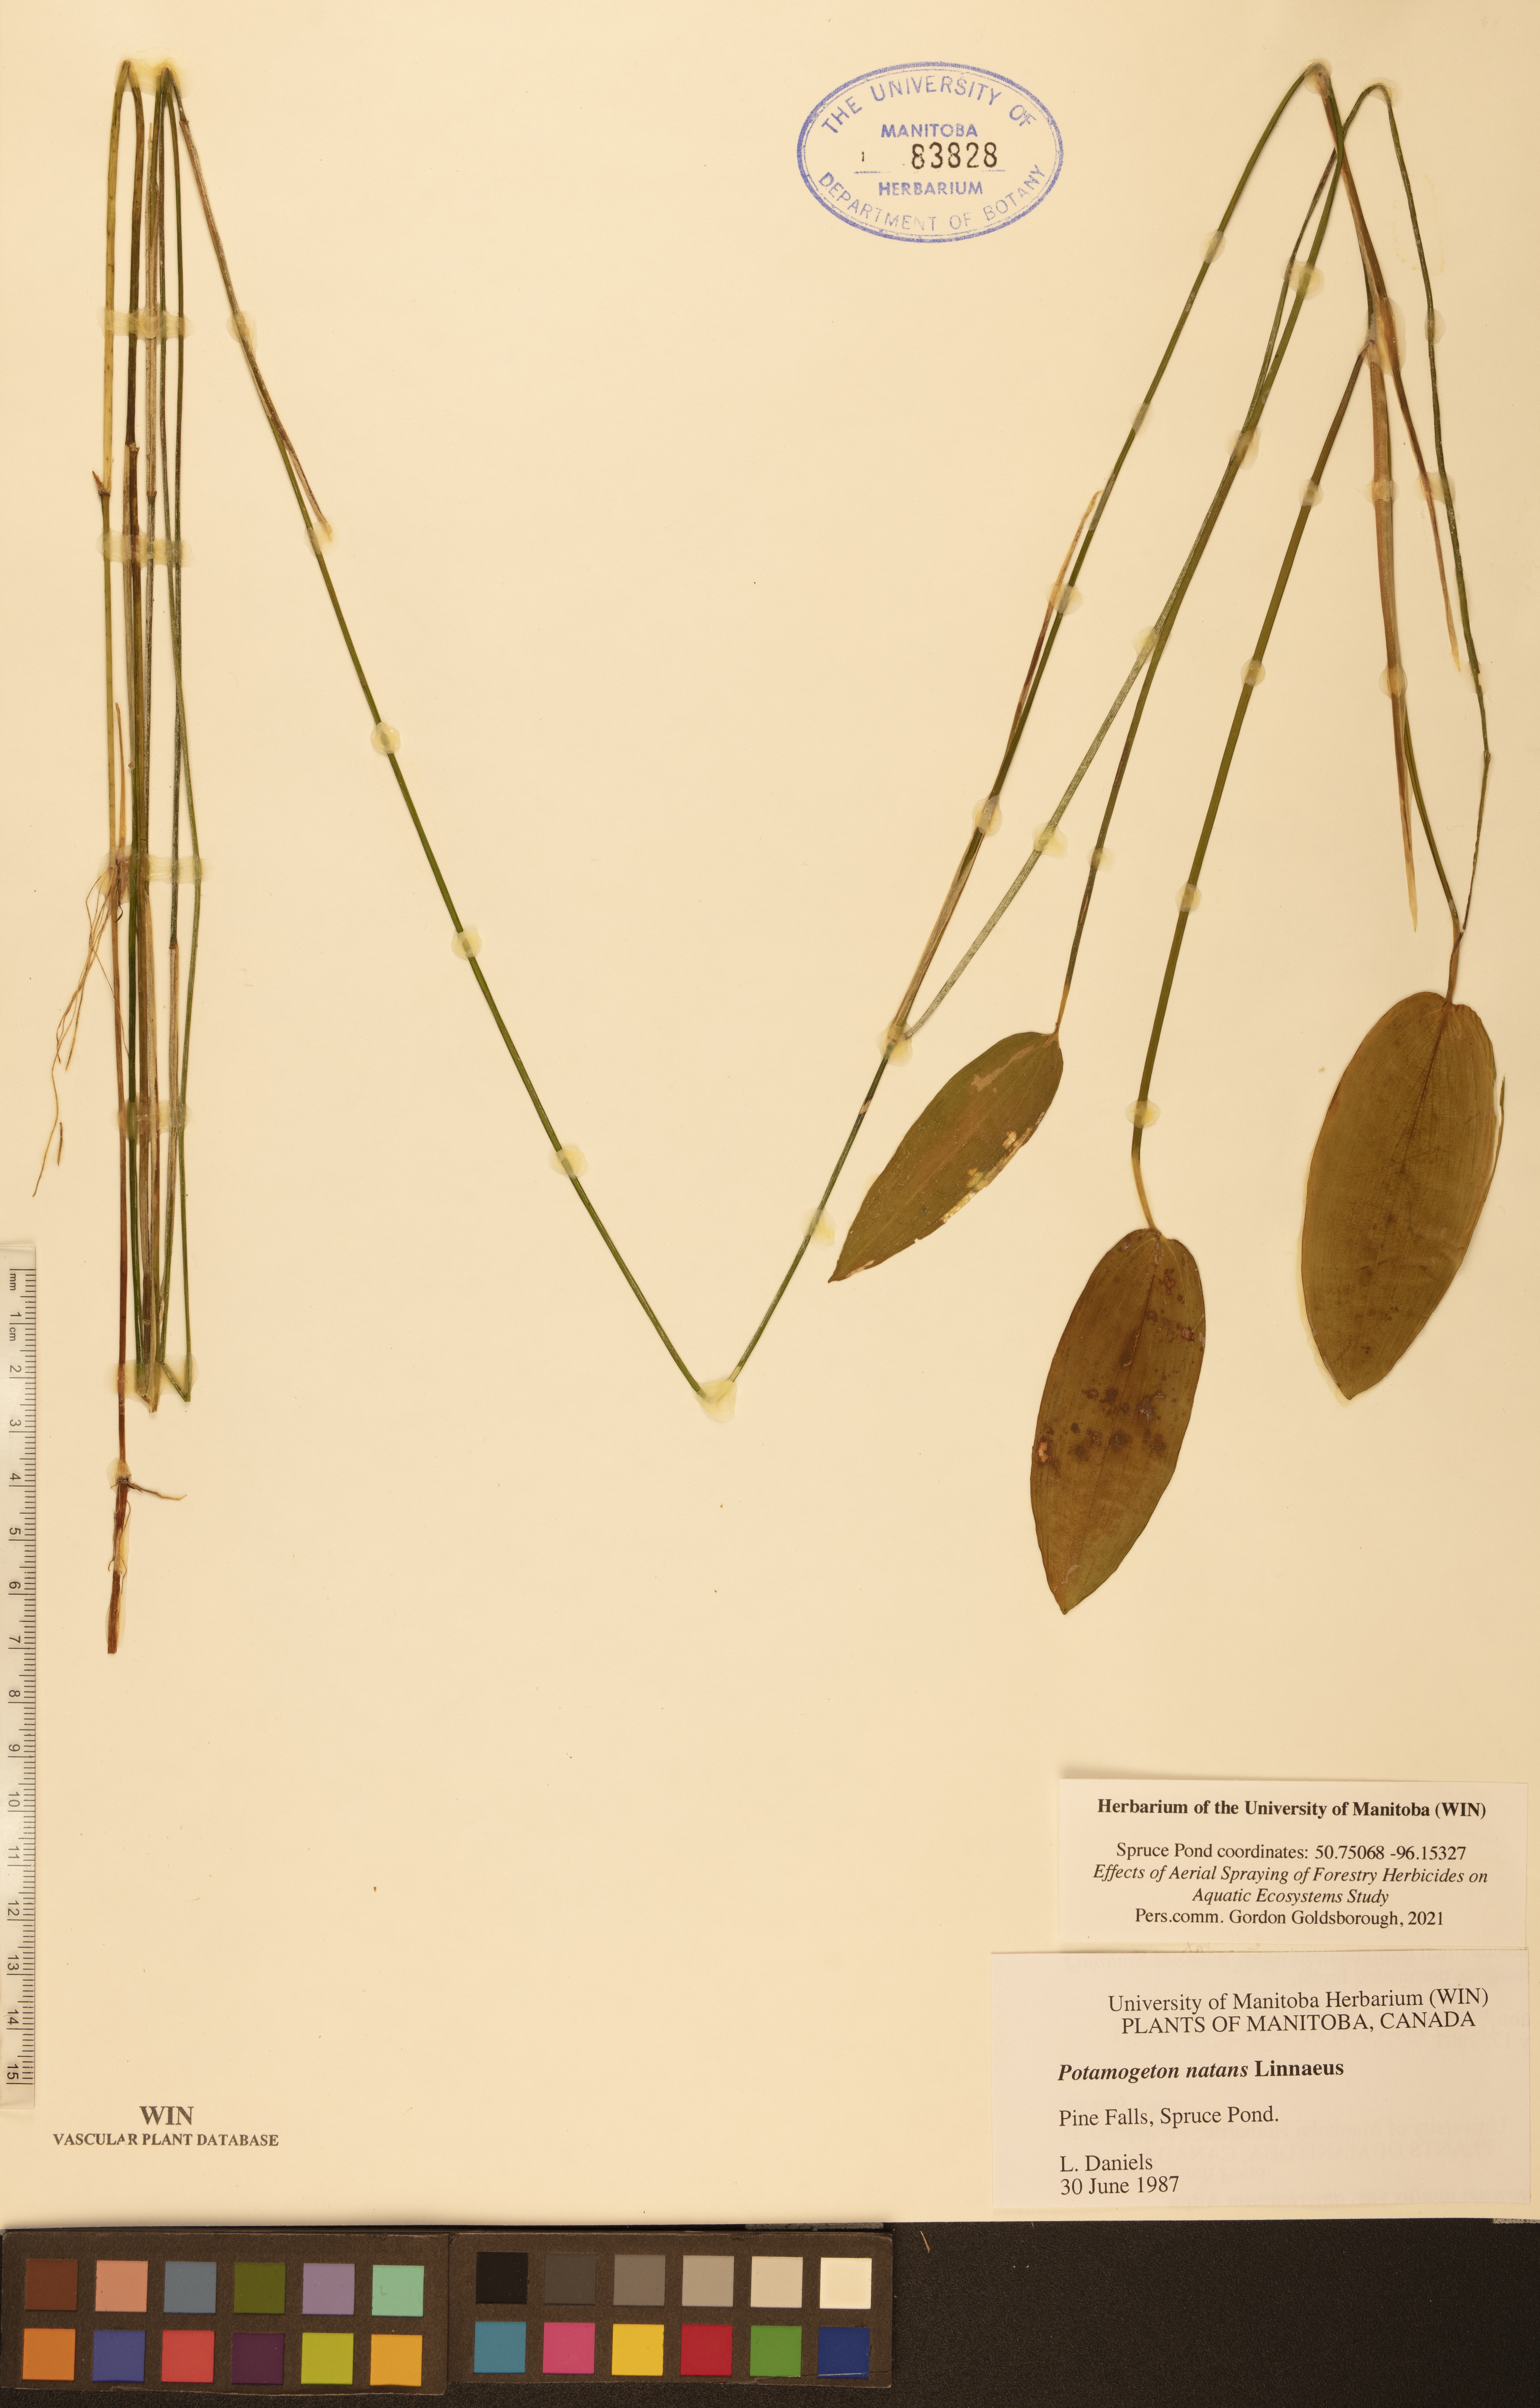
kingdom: Plantae
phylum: Tracheophyta
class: Liliopsida
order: Alismatales
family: Potamogetonaceae
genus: Potamogeton
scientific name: Potamogeton natans
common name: Broad-leaved pondweed
